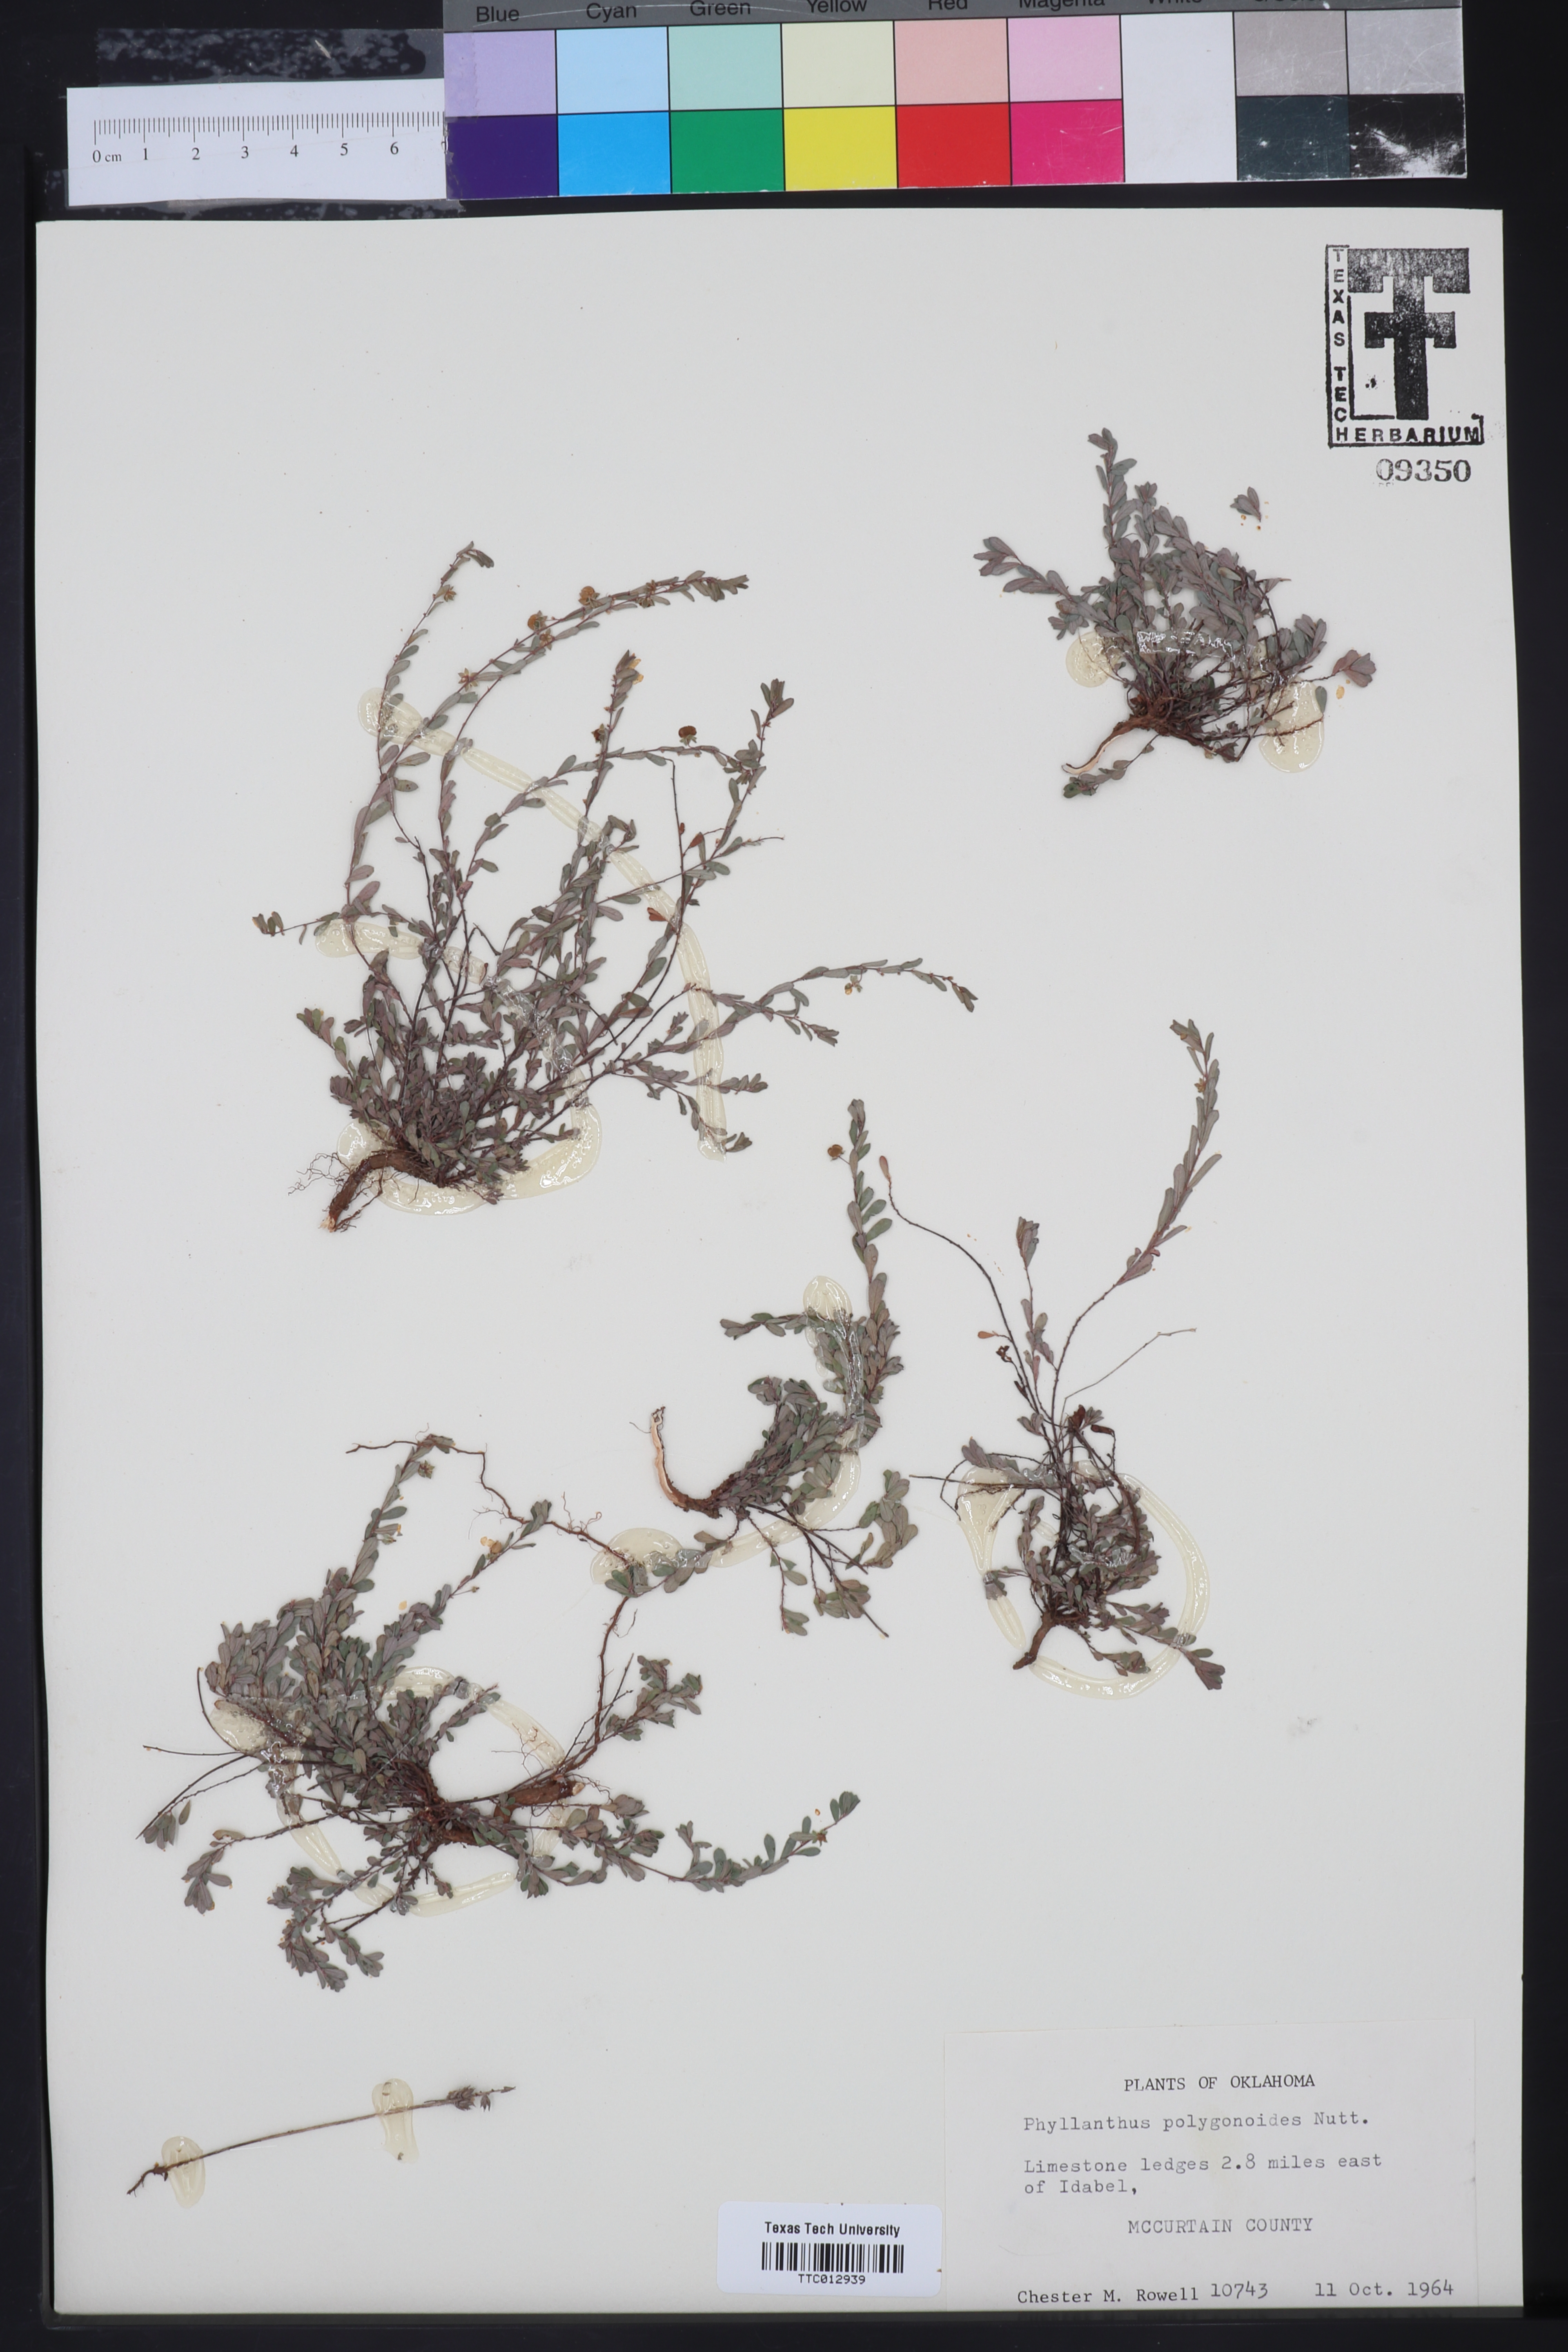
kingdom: Plantae
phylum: Tracheophyta
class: Magnoliopsida
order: Malpighiales
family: Phyllanthaceae
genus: Phyllanthus
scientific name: Phyllanthus polygonoides
